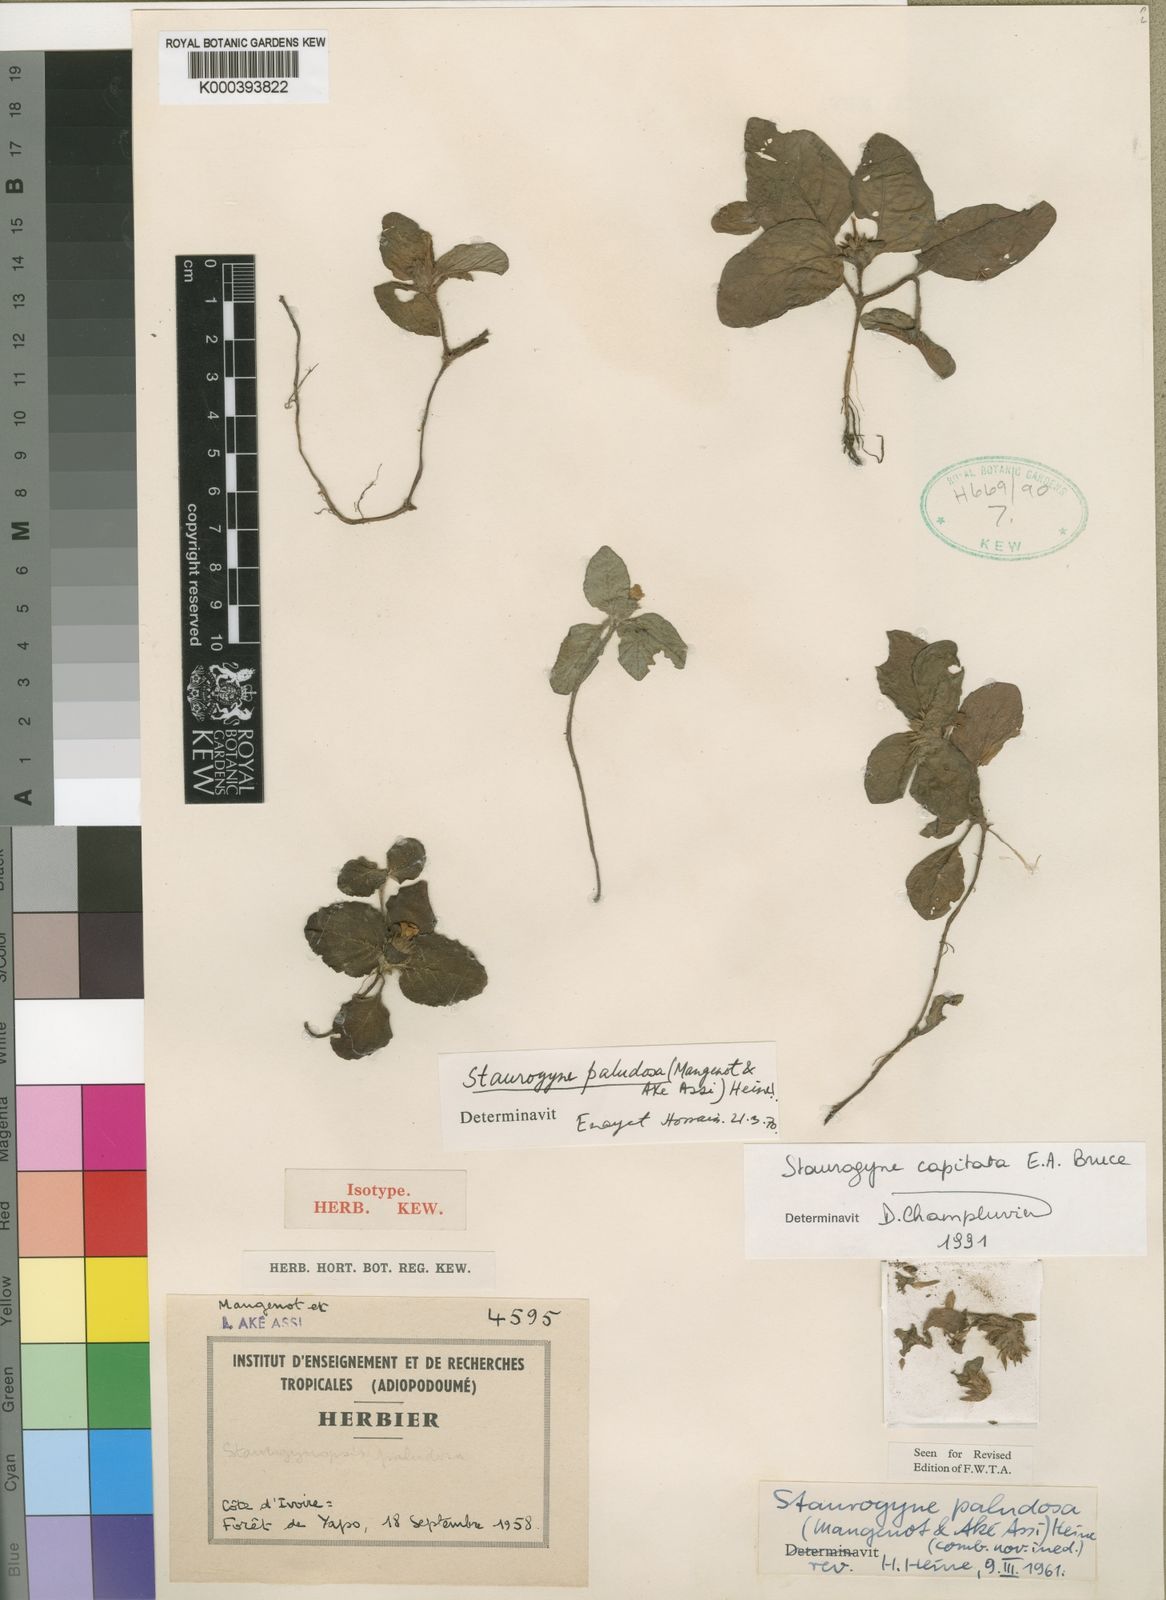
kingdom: Plantae
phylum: Tracheophyta
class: Magnoliopsida
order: Lamiales
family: Acanthaceae
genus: Staurogyne
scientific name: Staurogyne capitata
